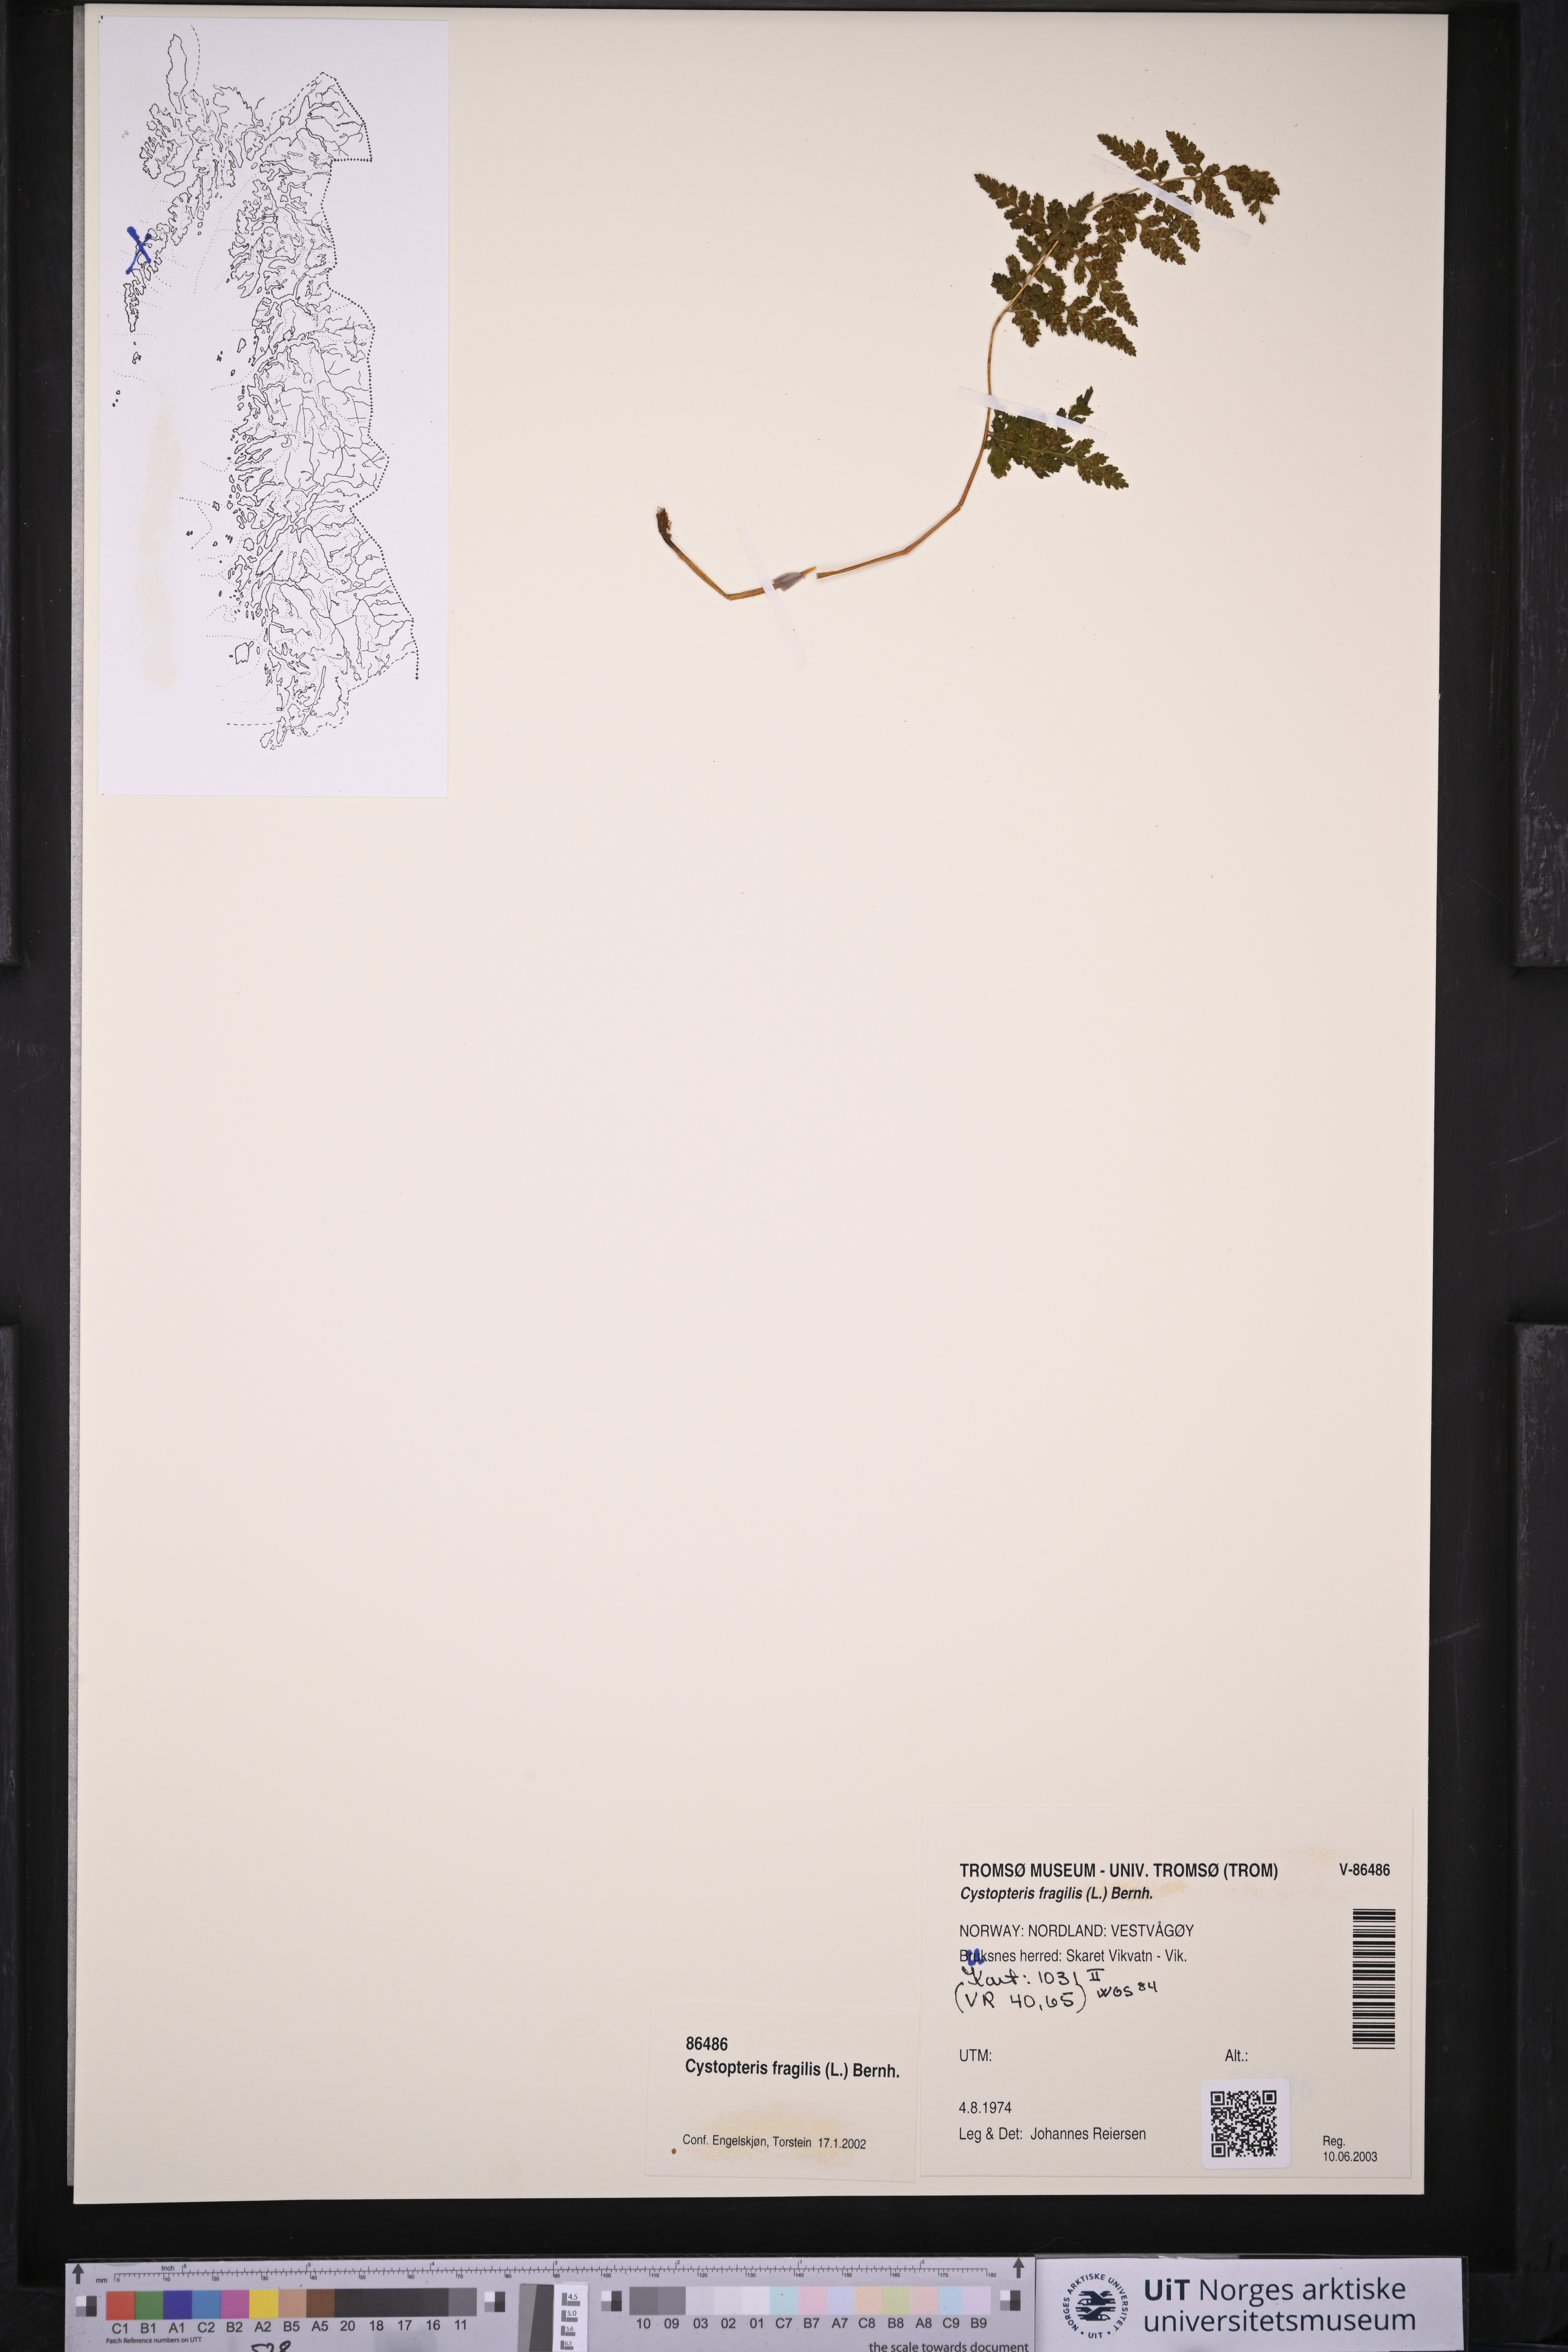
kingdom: Plantae
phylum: Tracheophyta
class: Polypodiopsida
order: Polypodiales
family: Cystopteridaceae
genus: Cystopteris
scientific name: Cystopteris fragilis
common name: Brittle bladder fern
